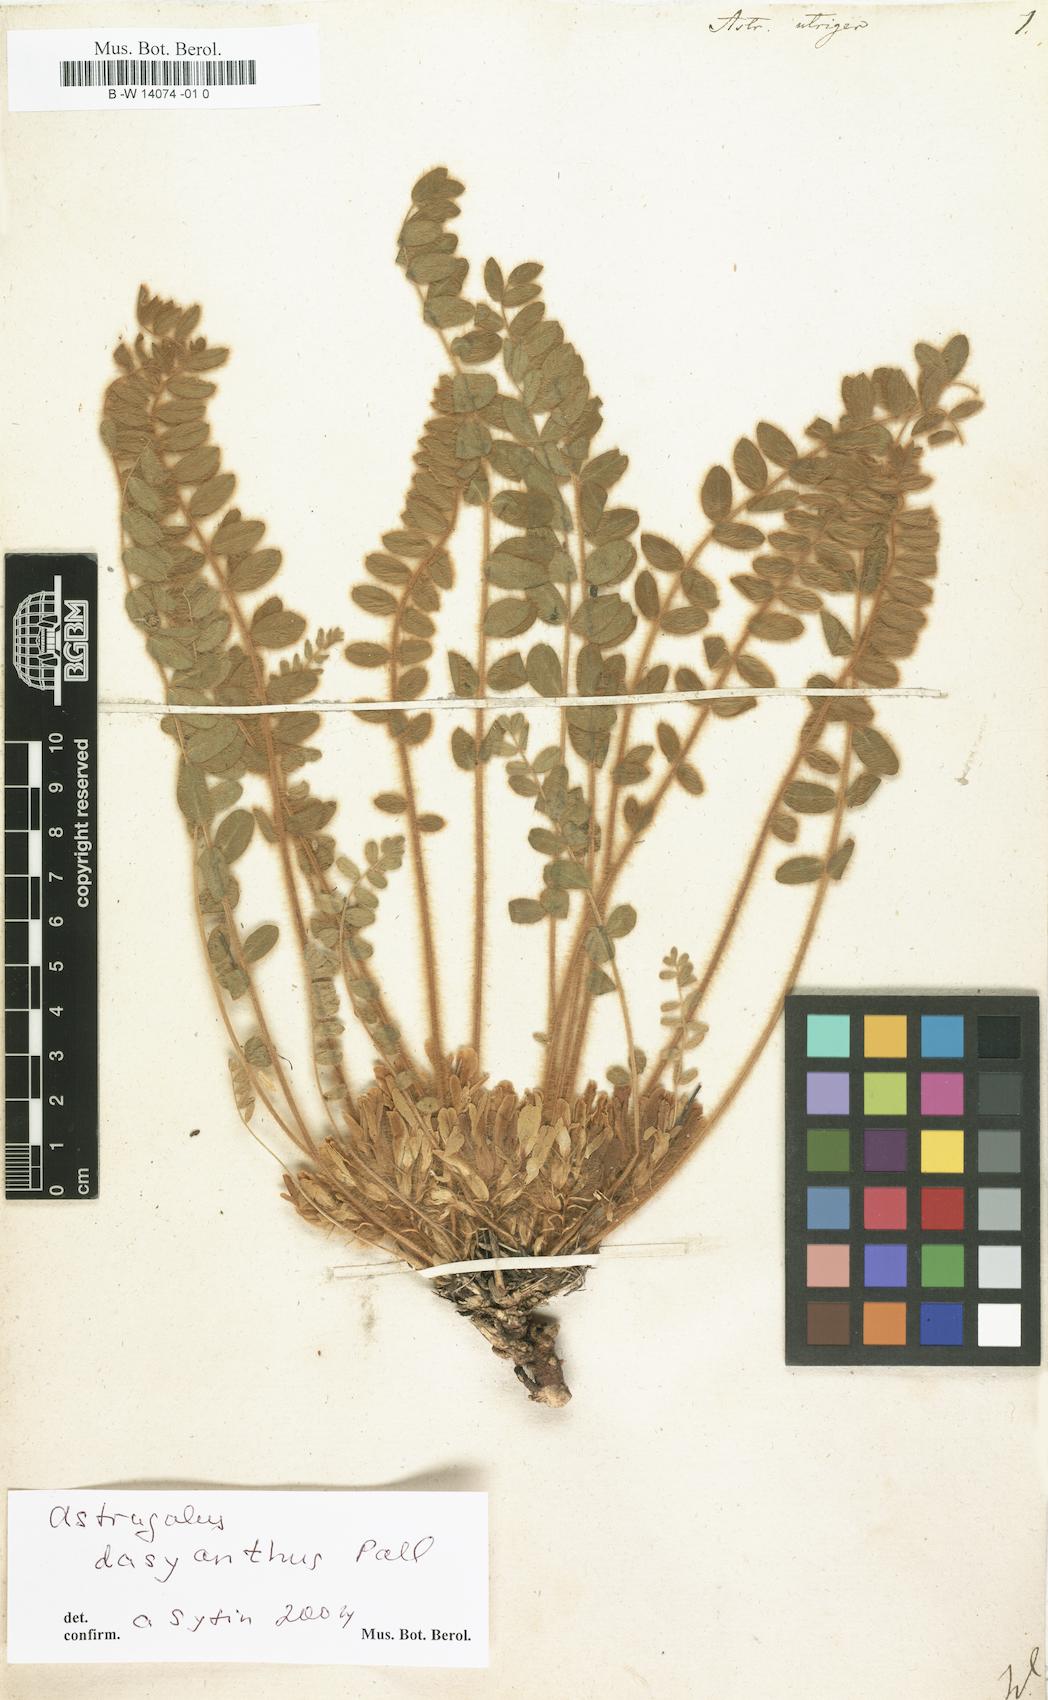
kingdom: Plantae
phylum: Tracheophyta
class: Magnoliopsida
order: Fabales
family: Fabaceae
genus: Astragalus
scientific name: Astragalus utriger
